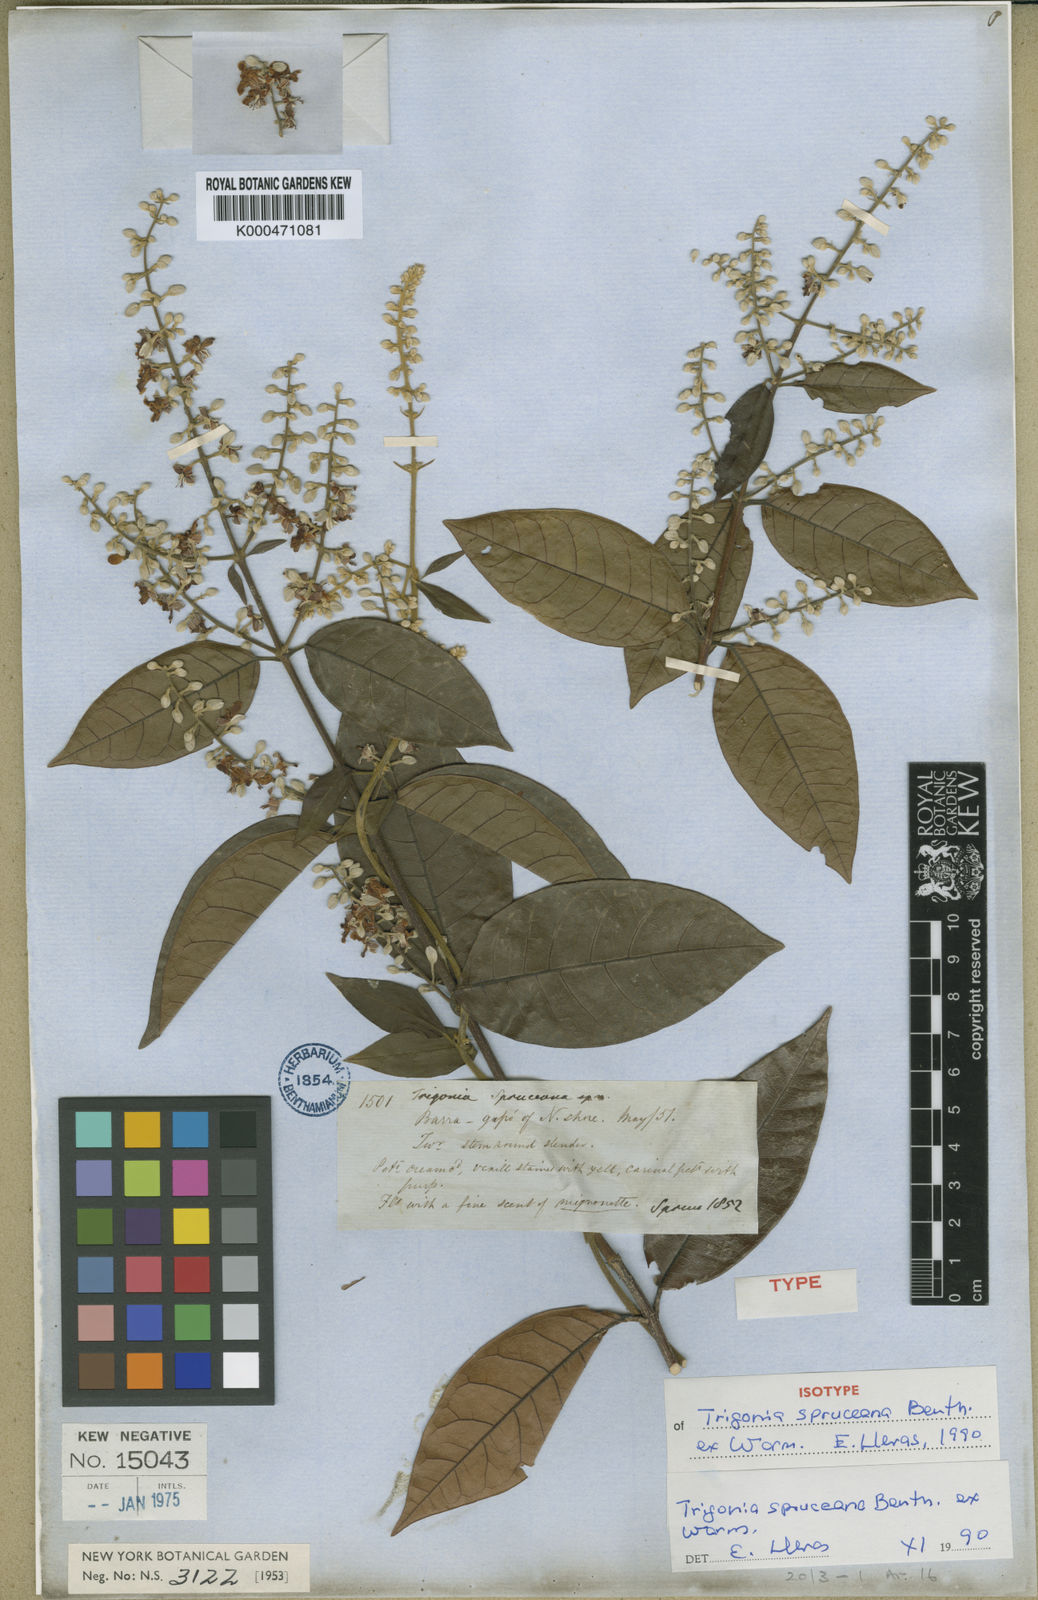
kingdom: Plantae
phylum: Tracheophyta
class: Magnoliopsida
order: Malpighiales
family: Trigoniaceae
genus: Trigonia
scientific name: Trigonia spruceana
